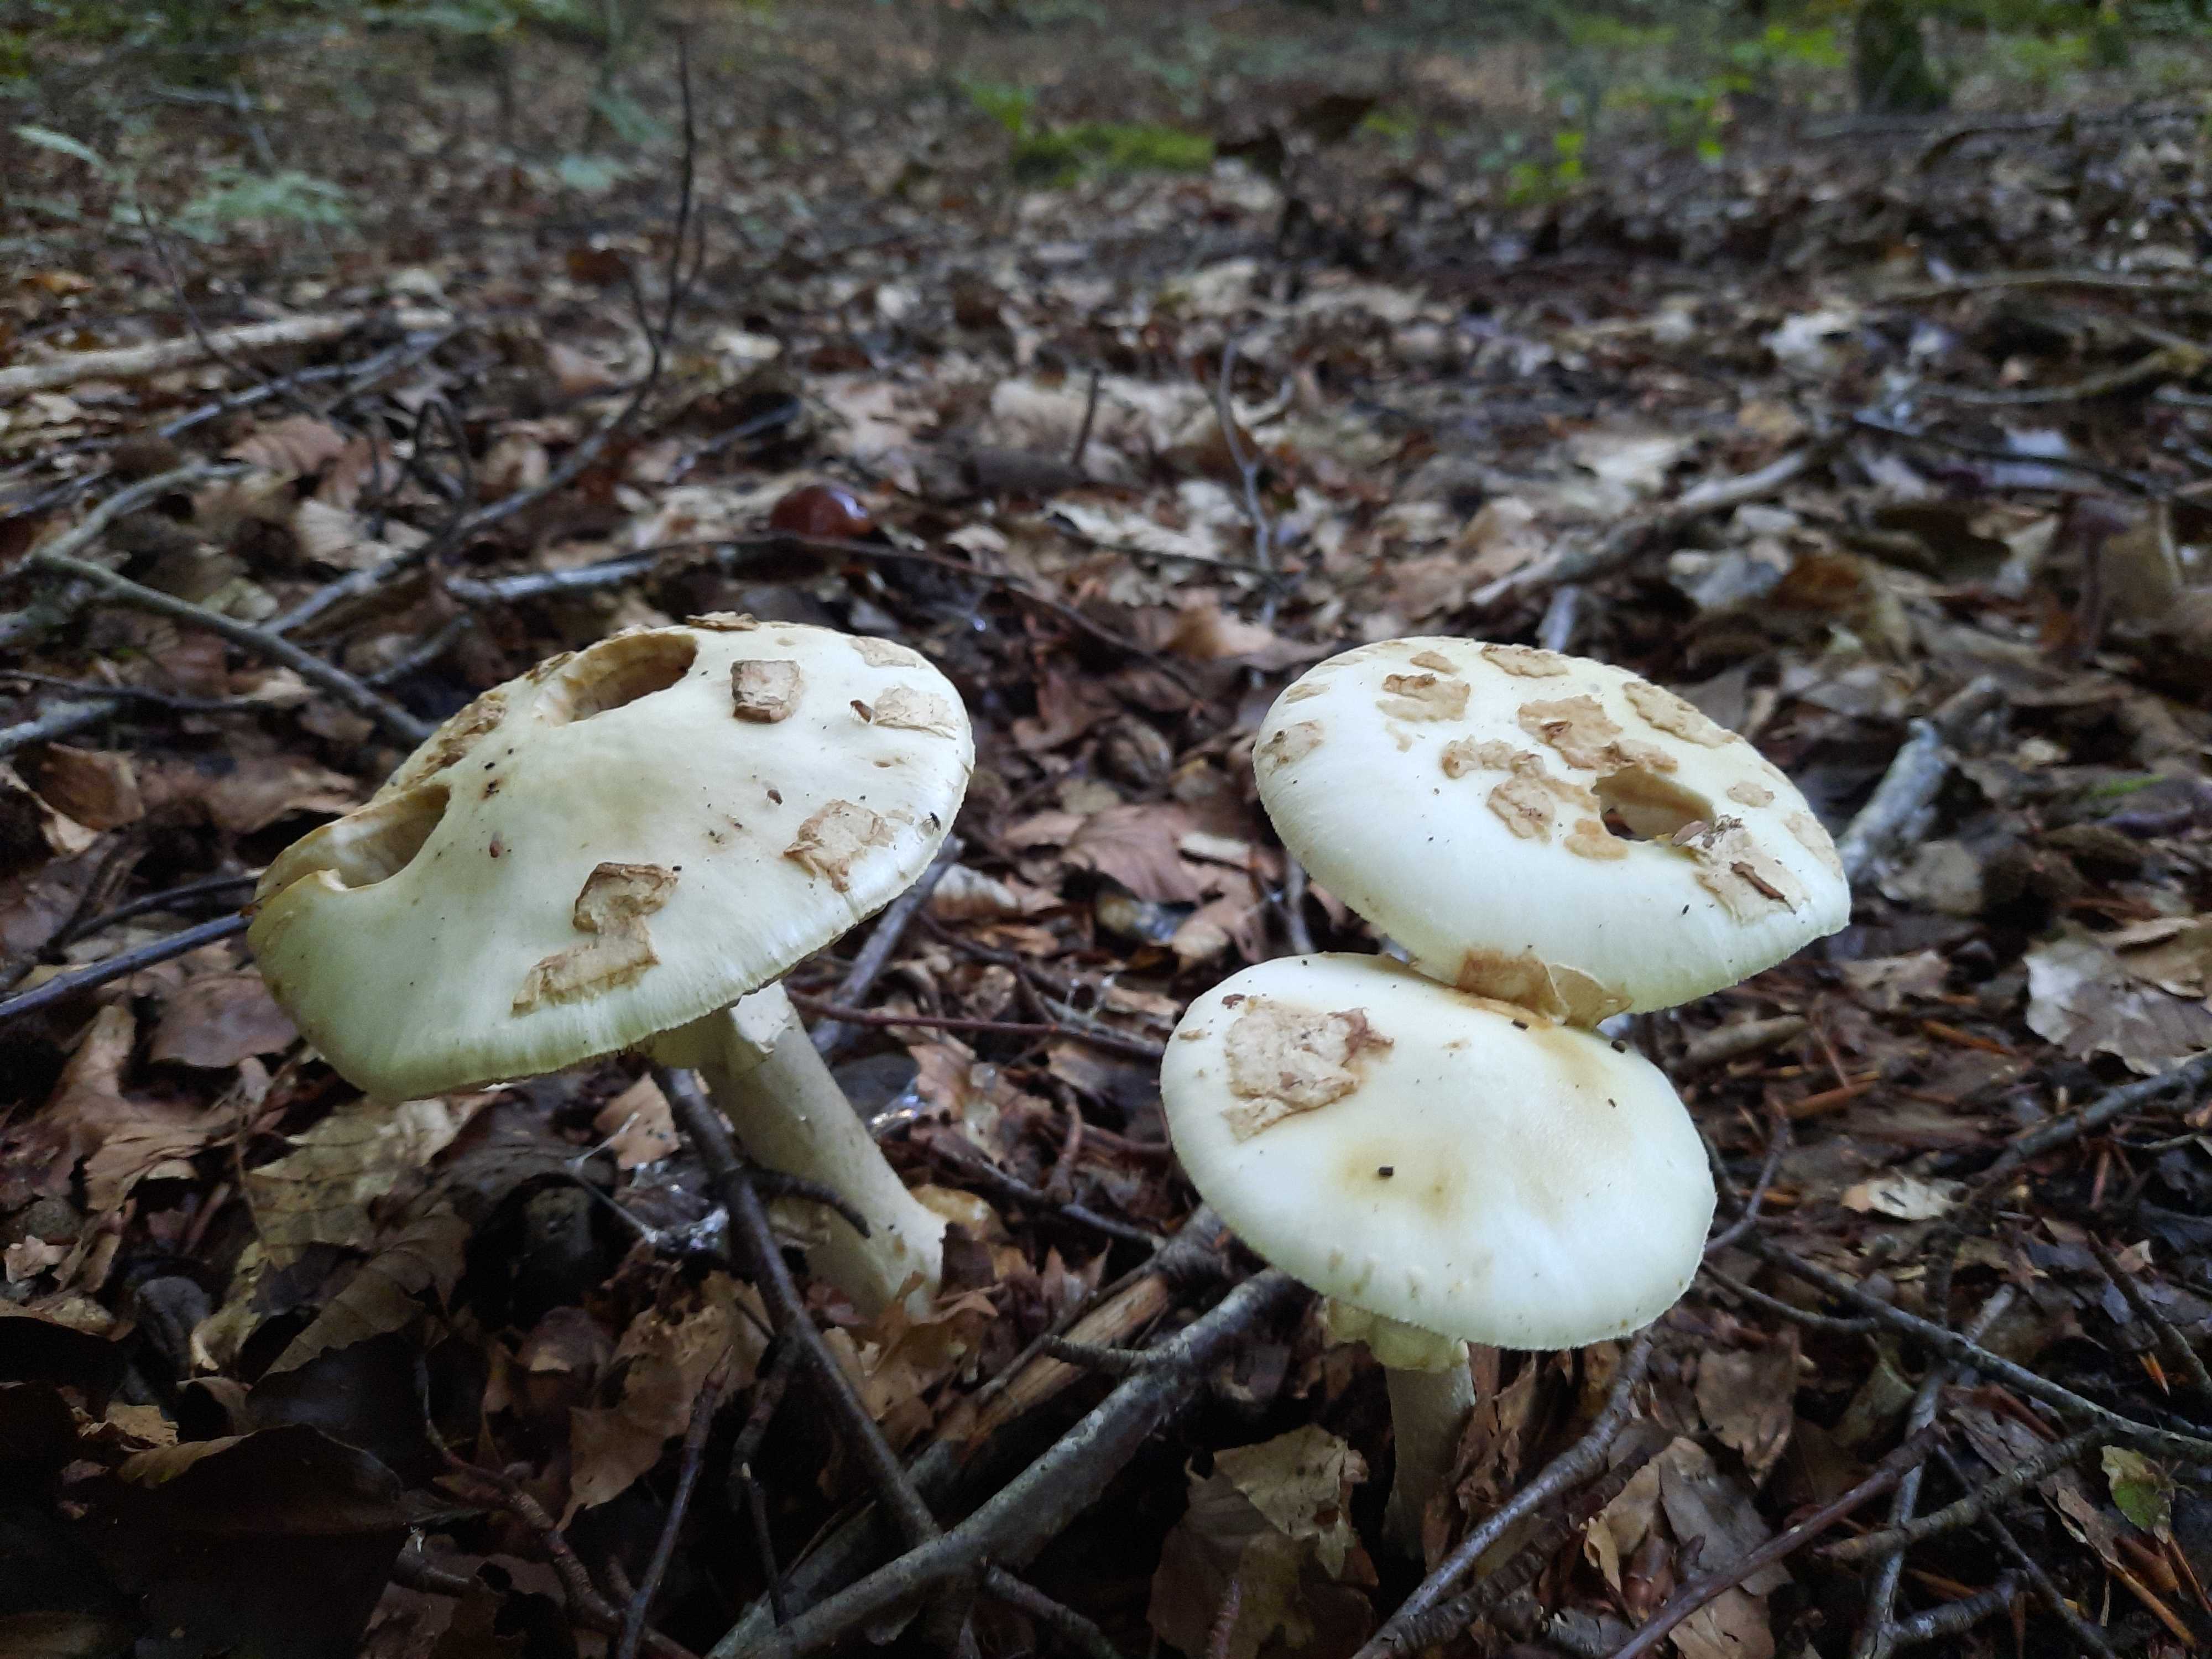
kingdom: Fungi
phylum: Basidiomycota
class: Agaricomycetes
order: Agaricales
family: Amanitaceae
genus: Amanita
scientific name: Amanita citrina
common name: kugleknoldet fluesvamp
